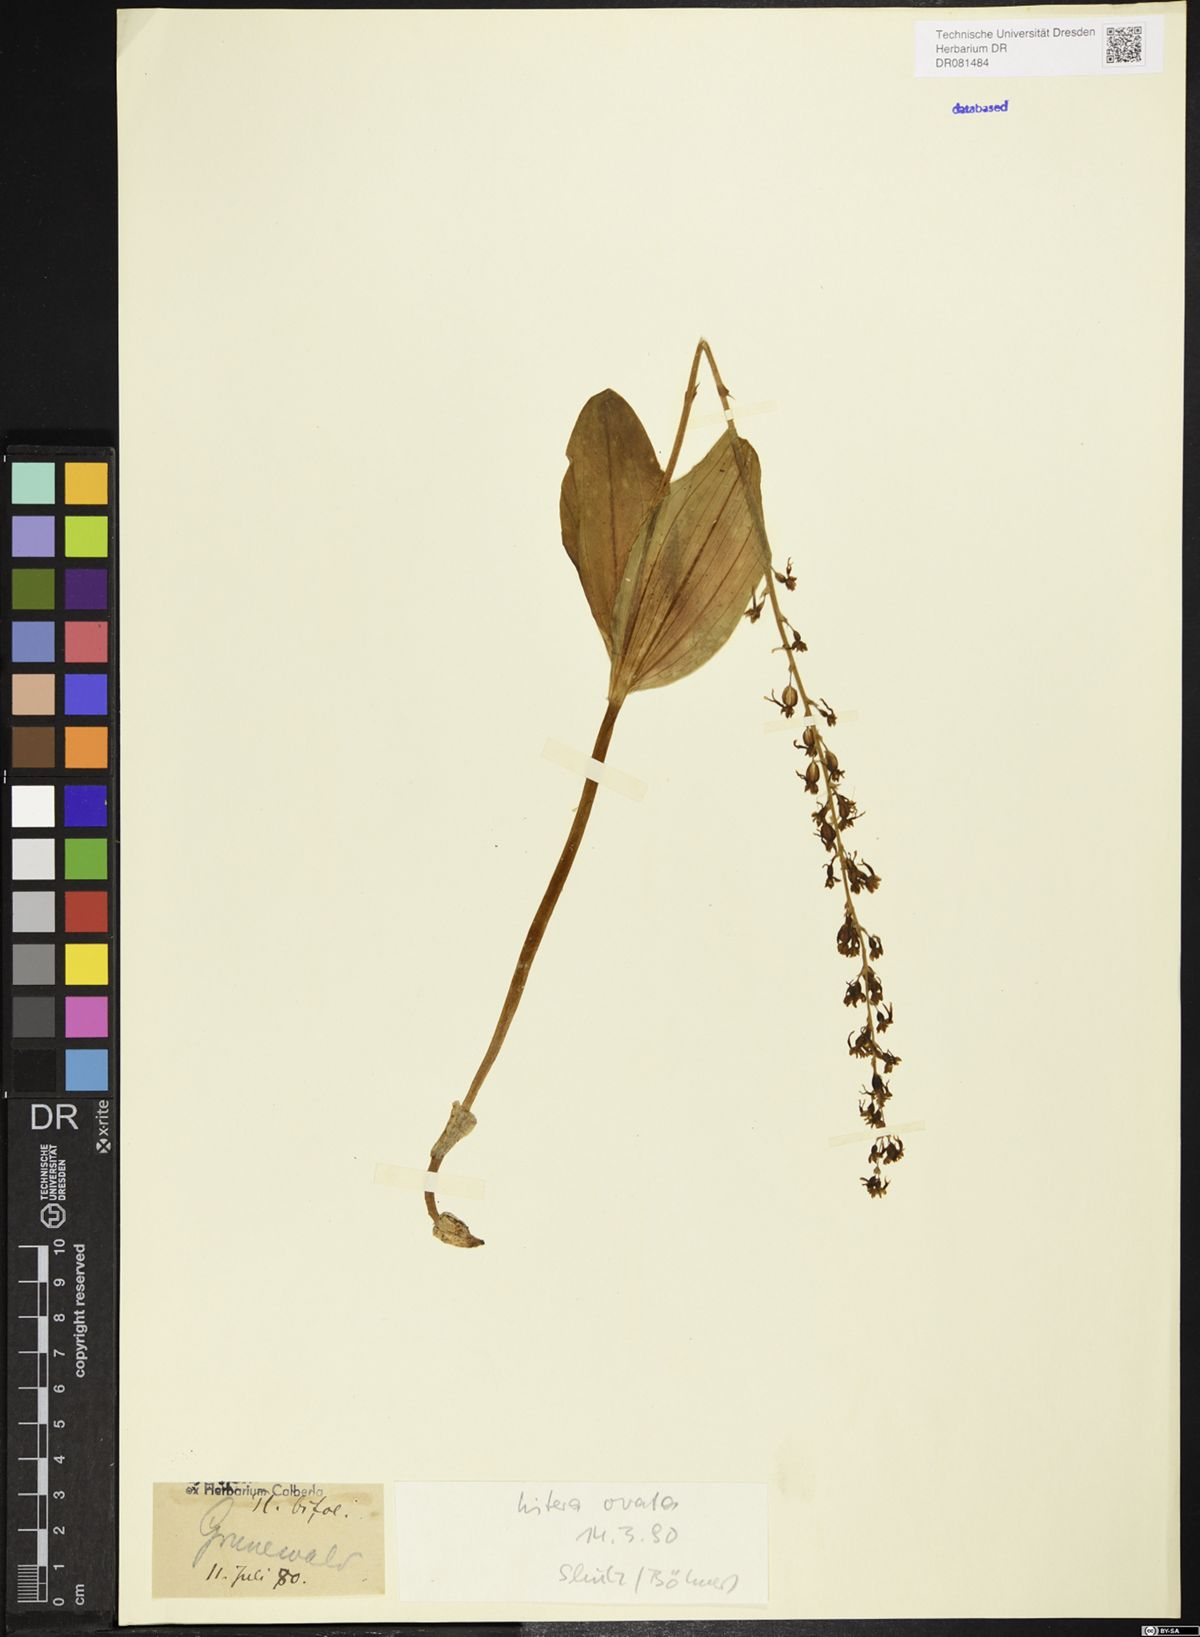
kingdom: Plantae
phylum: Tracheophyta
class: Liliopsida
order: Asparagales
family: Orchidaceae
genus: Neottia
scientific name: Neottia ovata
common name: Common twayblade
